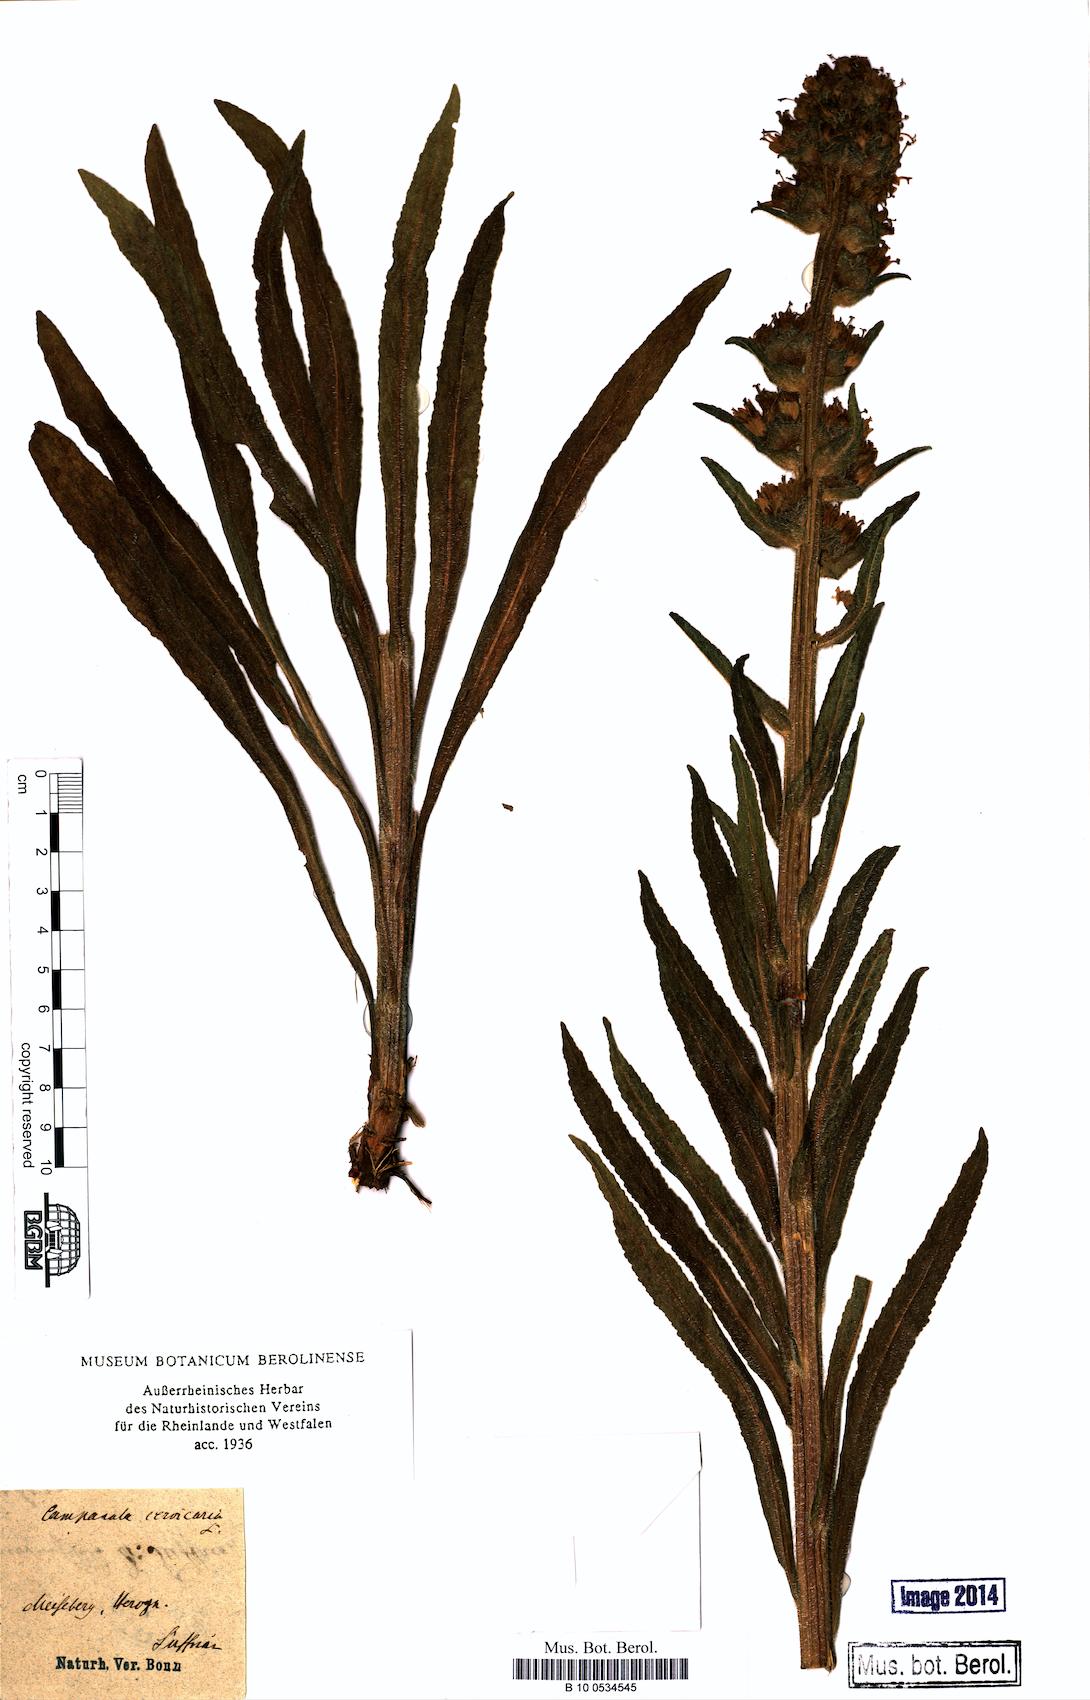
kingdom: Plantae
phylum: Tracheophyta
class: Magnoliopsida
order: Asterales
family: Campanulaceae
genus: Campanula
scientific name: Campanula cervicaria
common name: Bristly bellflower
